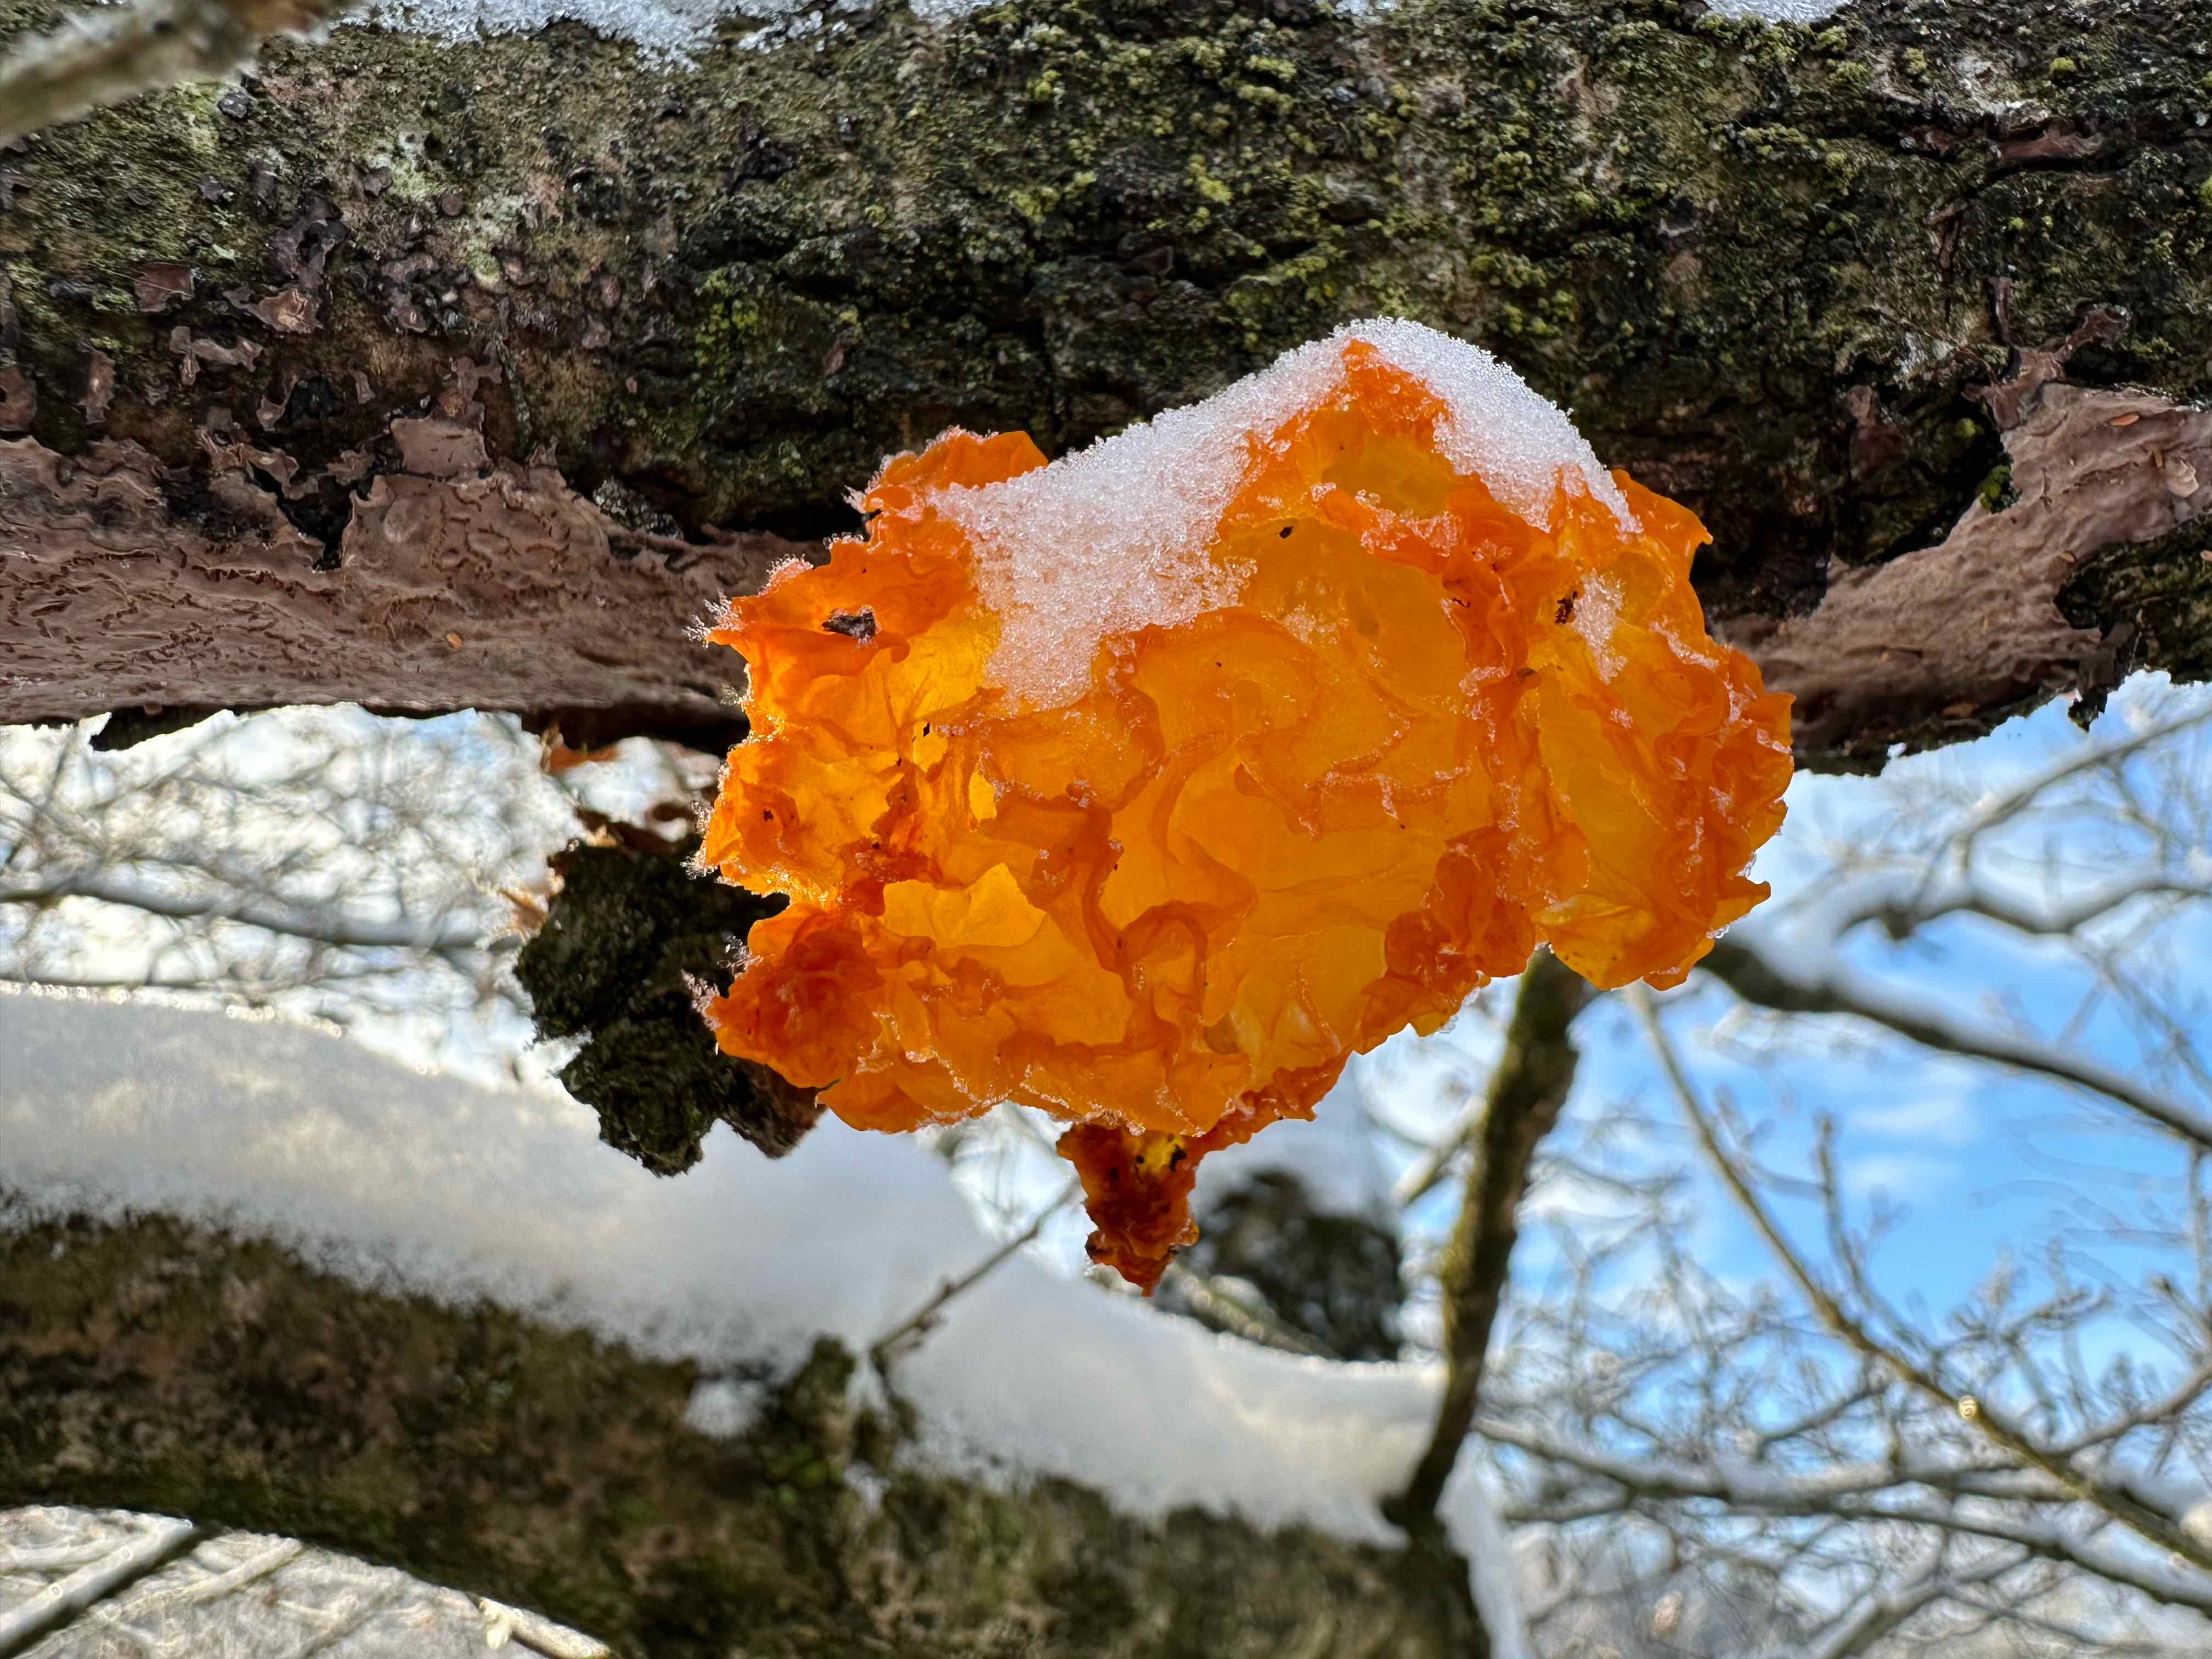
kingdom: Fungi
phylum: Basidiomycota
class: Tremellomycetes
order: Tremellales
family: Tremellaceae
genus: Tremella
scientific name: Tremella mesenterica
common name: gul bævresvamp
